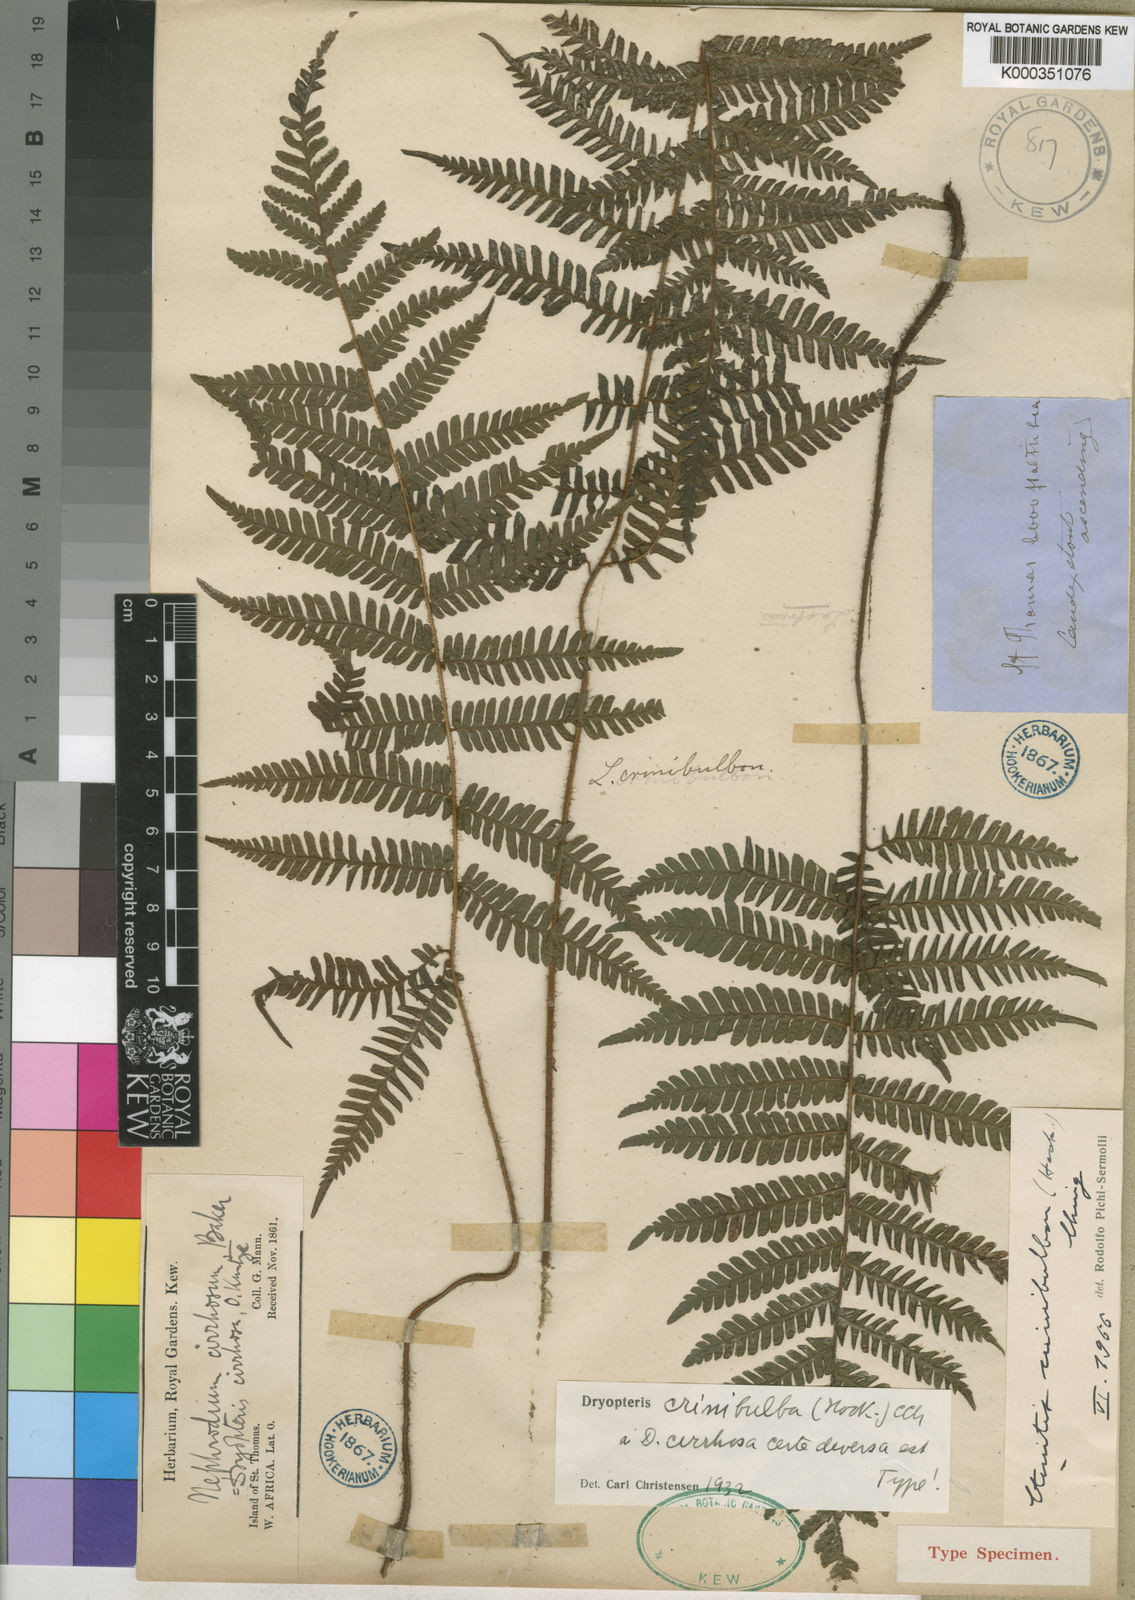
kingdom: Plantae
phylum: Tracheophyta
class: Polypodiopsida
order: Polypodiales
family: Dryopteridaceae
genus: Ctenitis
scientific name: Ctenitis cirrhosa
